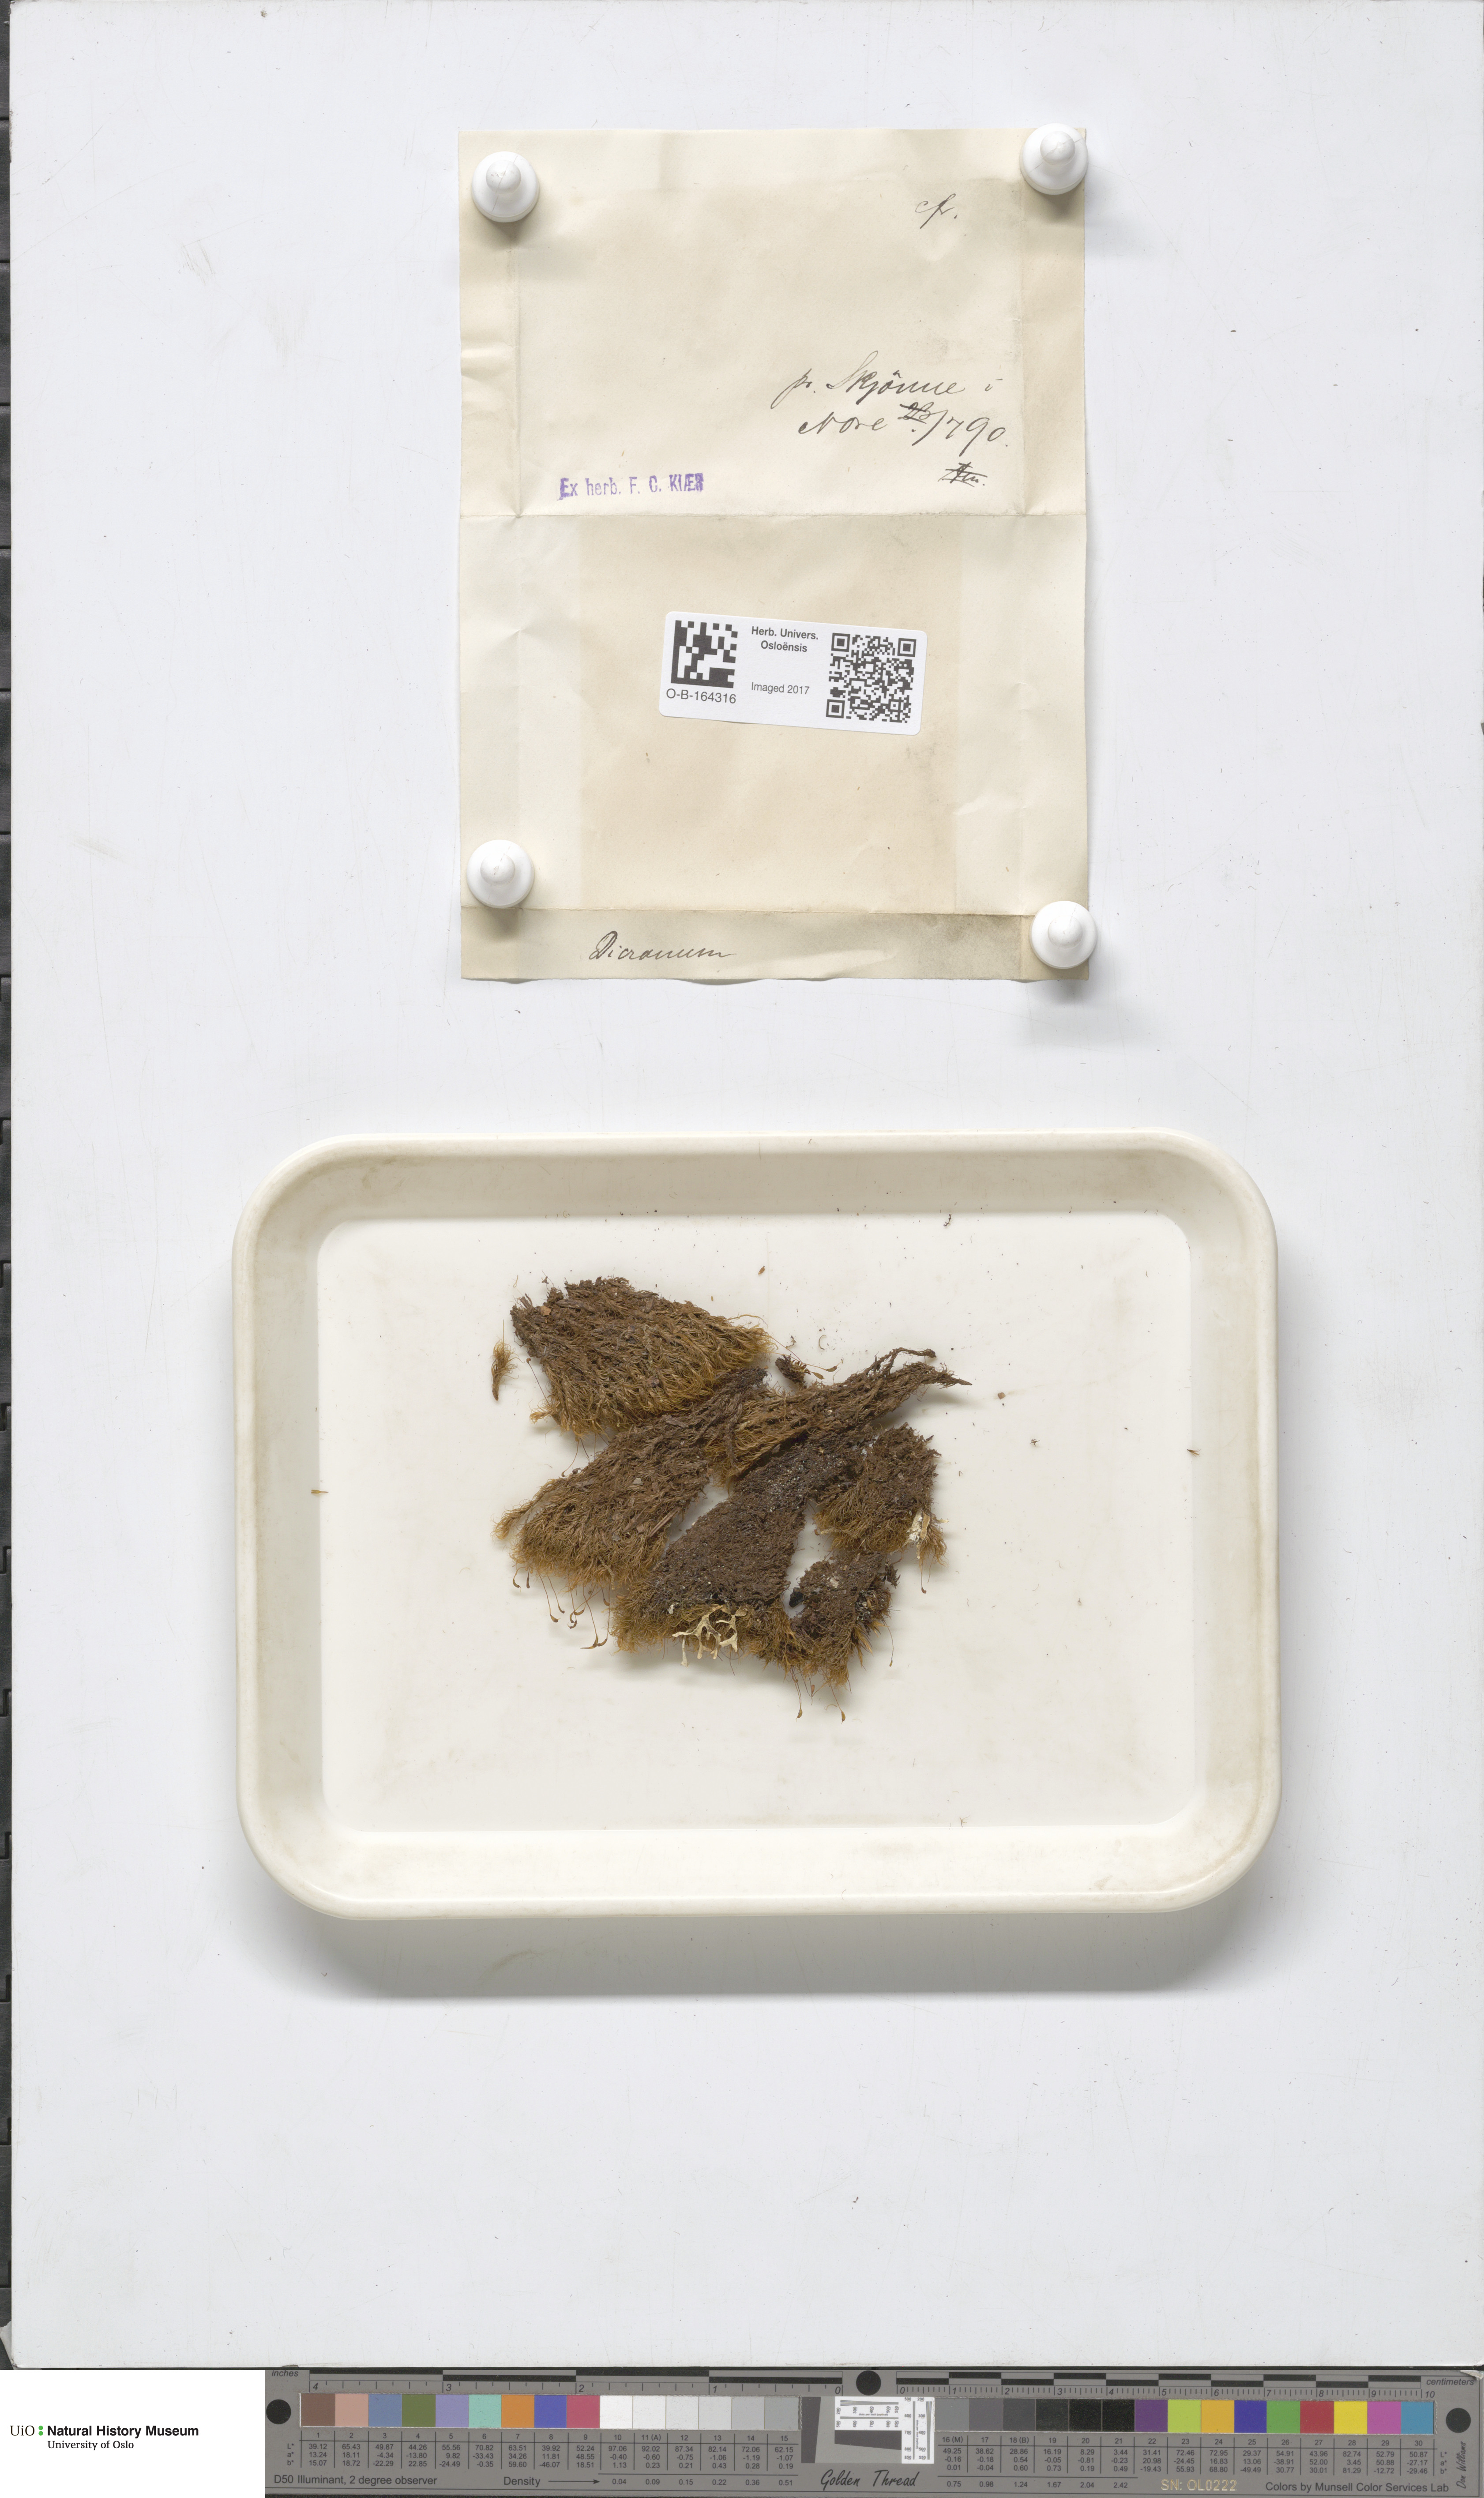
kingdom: Plantae
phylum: Bryophyta
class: Bryopsida
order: Dicranales
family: Dicranaceae
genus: Dicranum
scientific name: Dicranum
